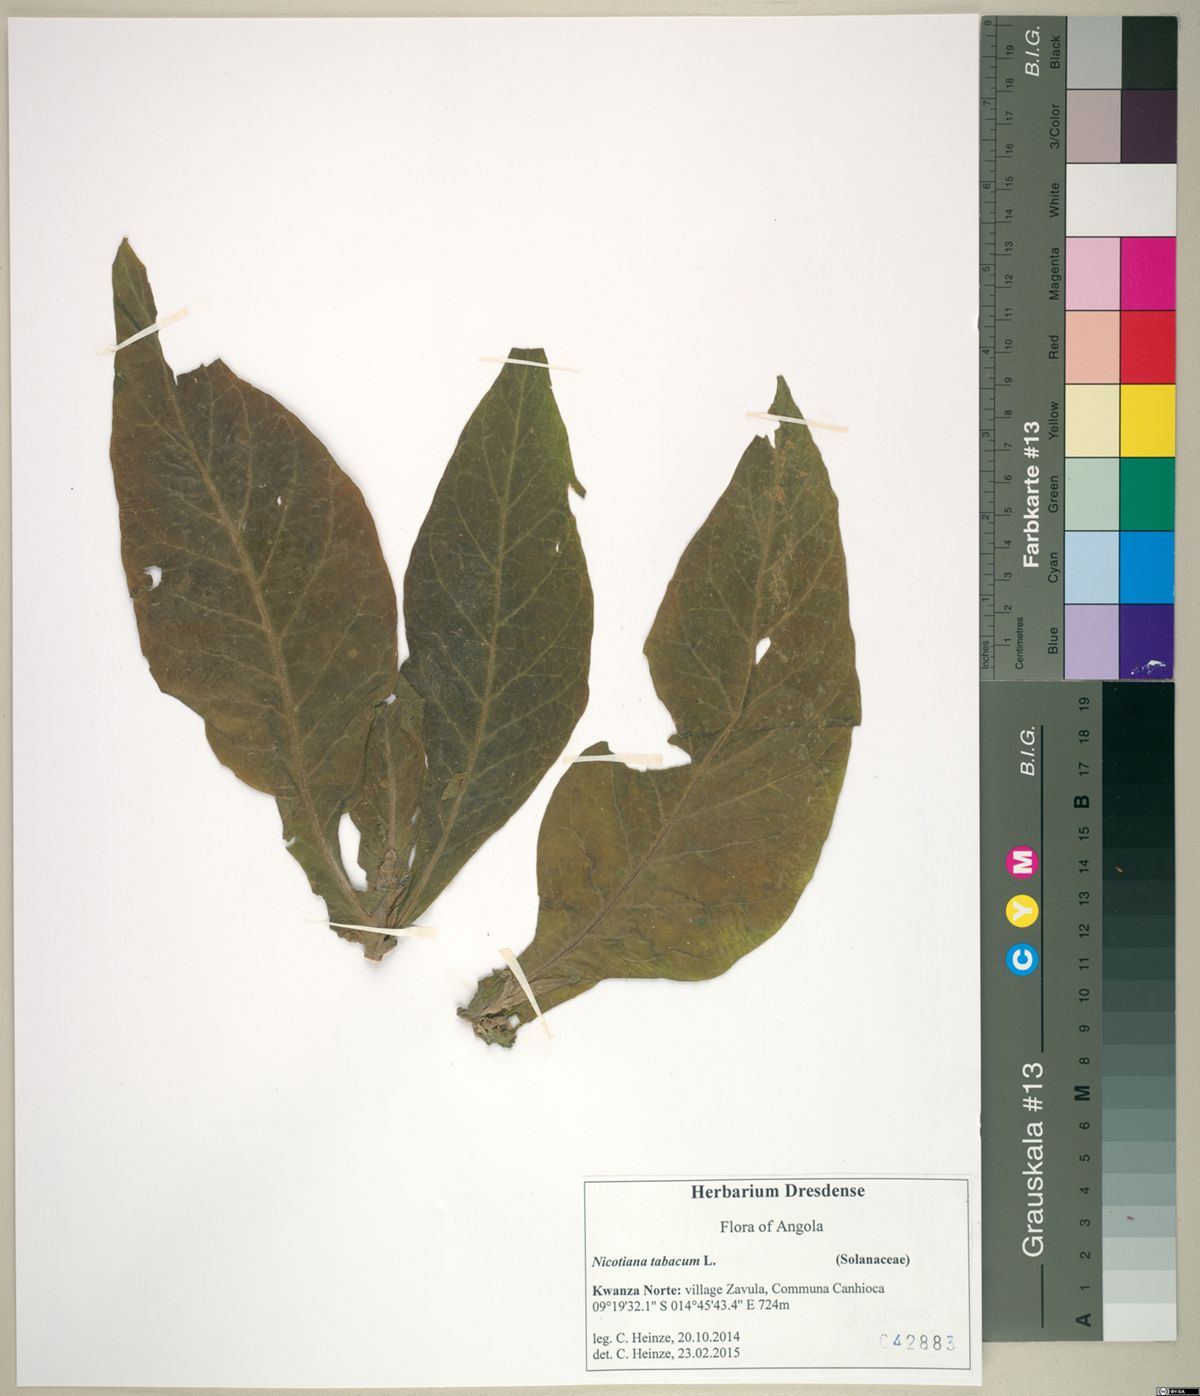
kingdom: Plantae
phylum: Tracheophyta
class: Magnoliopsida
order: Solanales
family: Solanaceae
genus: Nicotiana
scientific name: Nicotiana tabacum
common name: Tobacco
